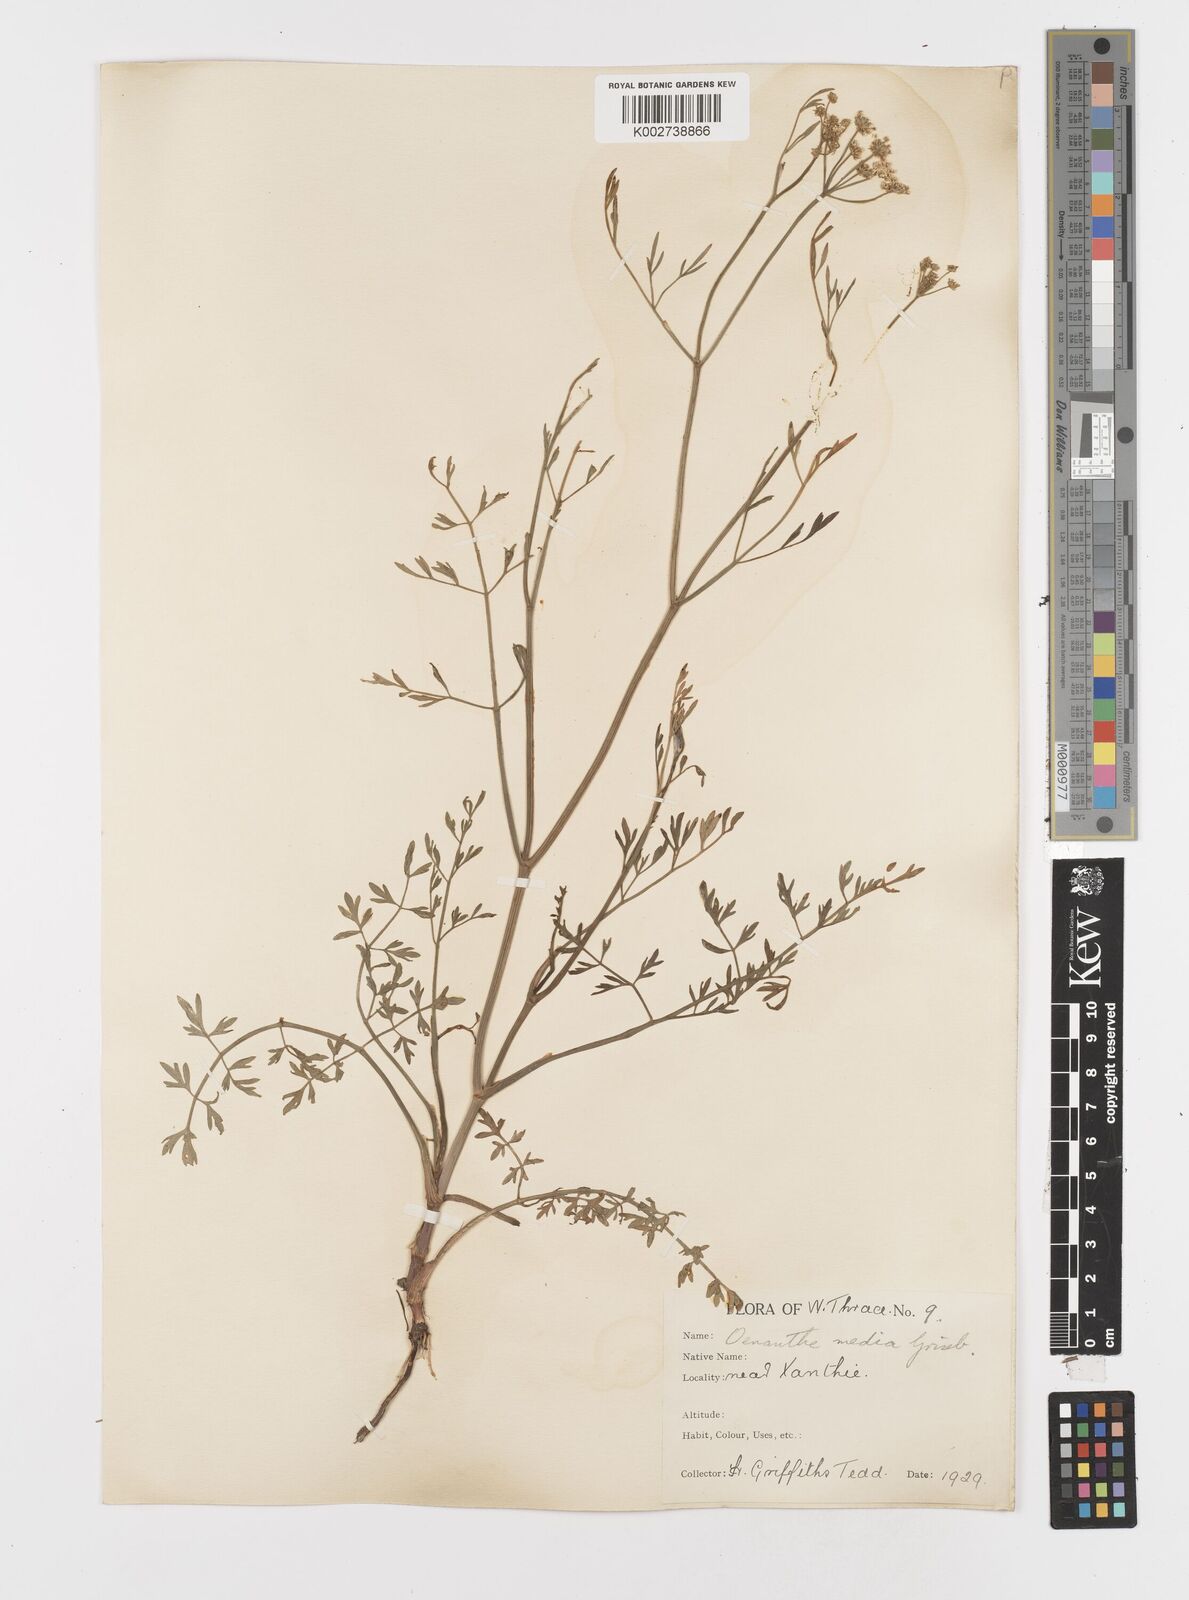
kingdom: Plantae
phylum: Tracheophyta
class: Magnoliopsida
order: Apiales
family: Apiaceae
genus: Oenanthe
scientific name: Oenanthe silaifolia
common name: Narrow-leaved water-dropwort
